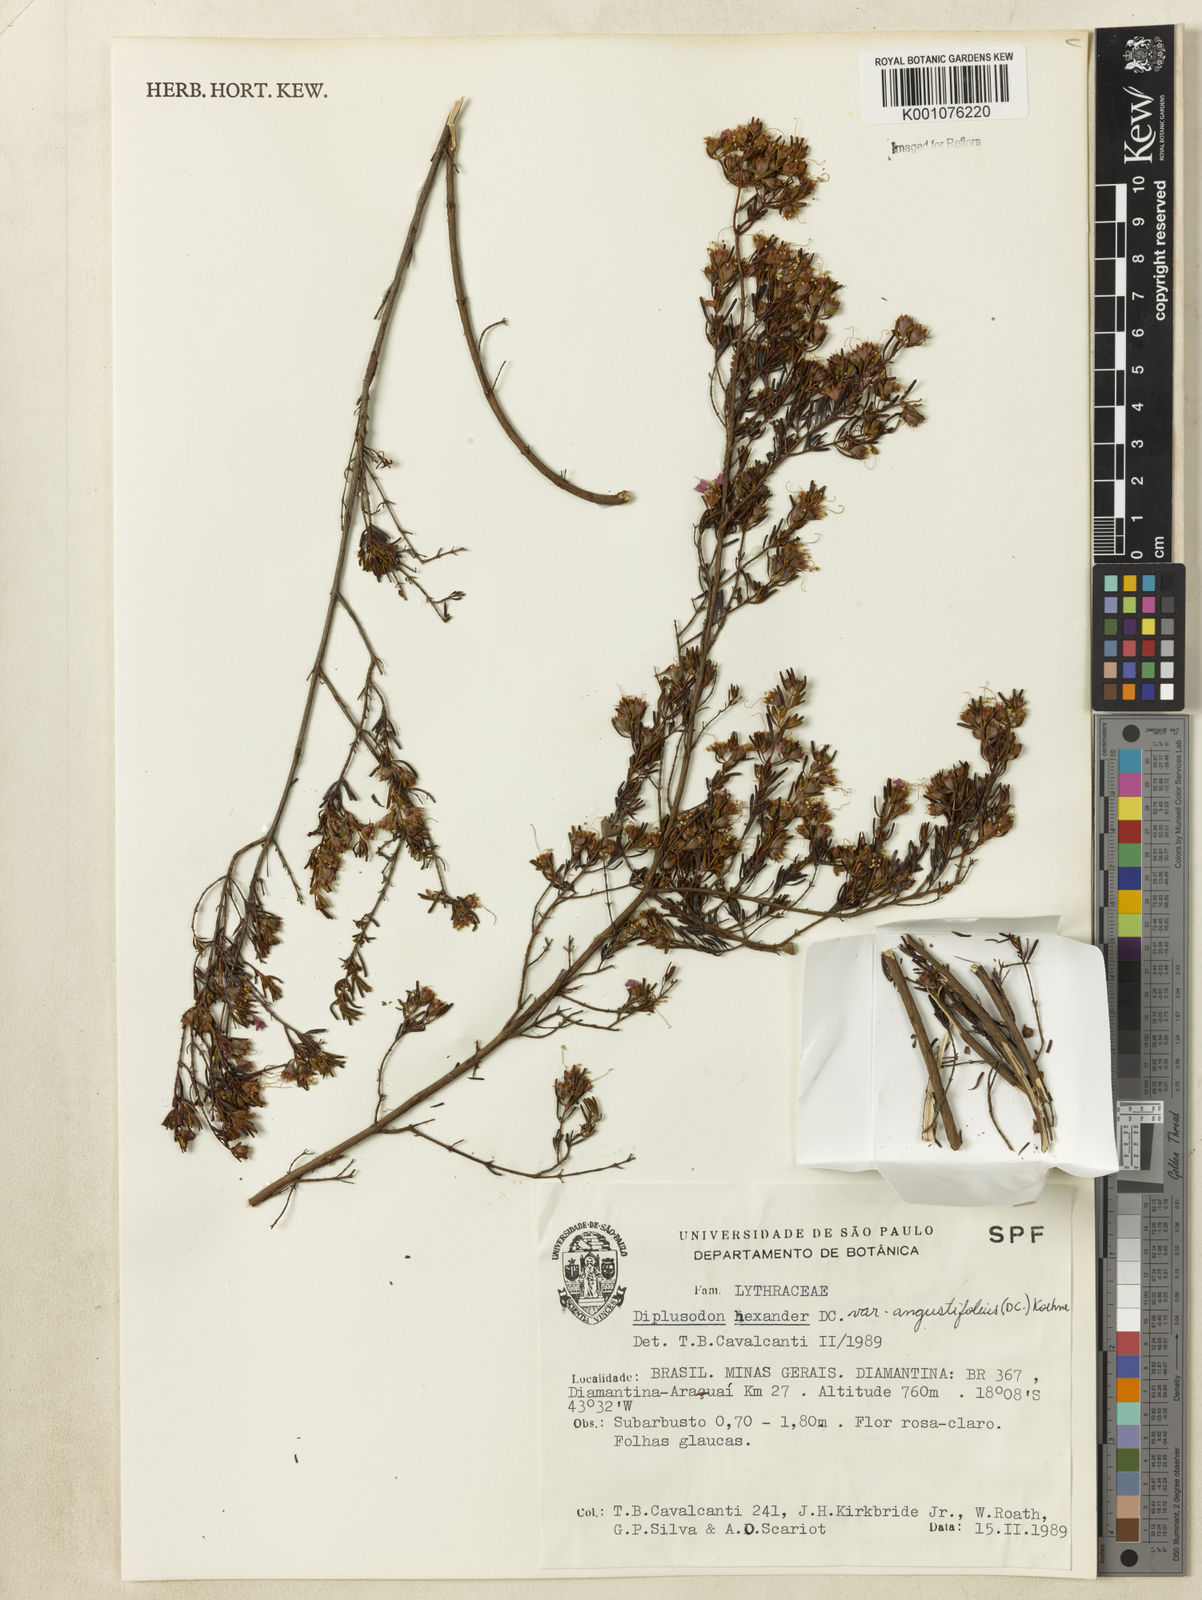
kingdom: Plantae
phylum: Tracheophyta
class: Magnoliopsida
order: Myrtales
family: Lythraceae
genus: Diplusodon
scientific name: Diplusodon hexander
